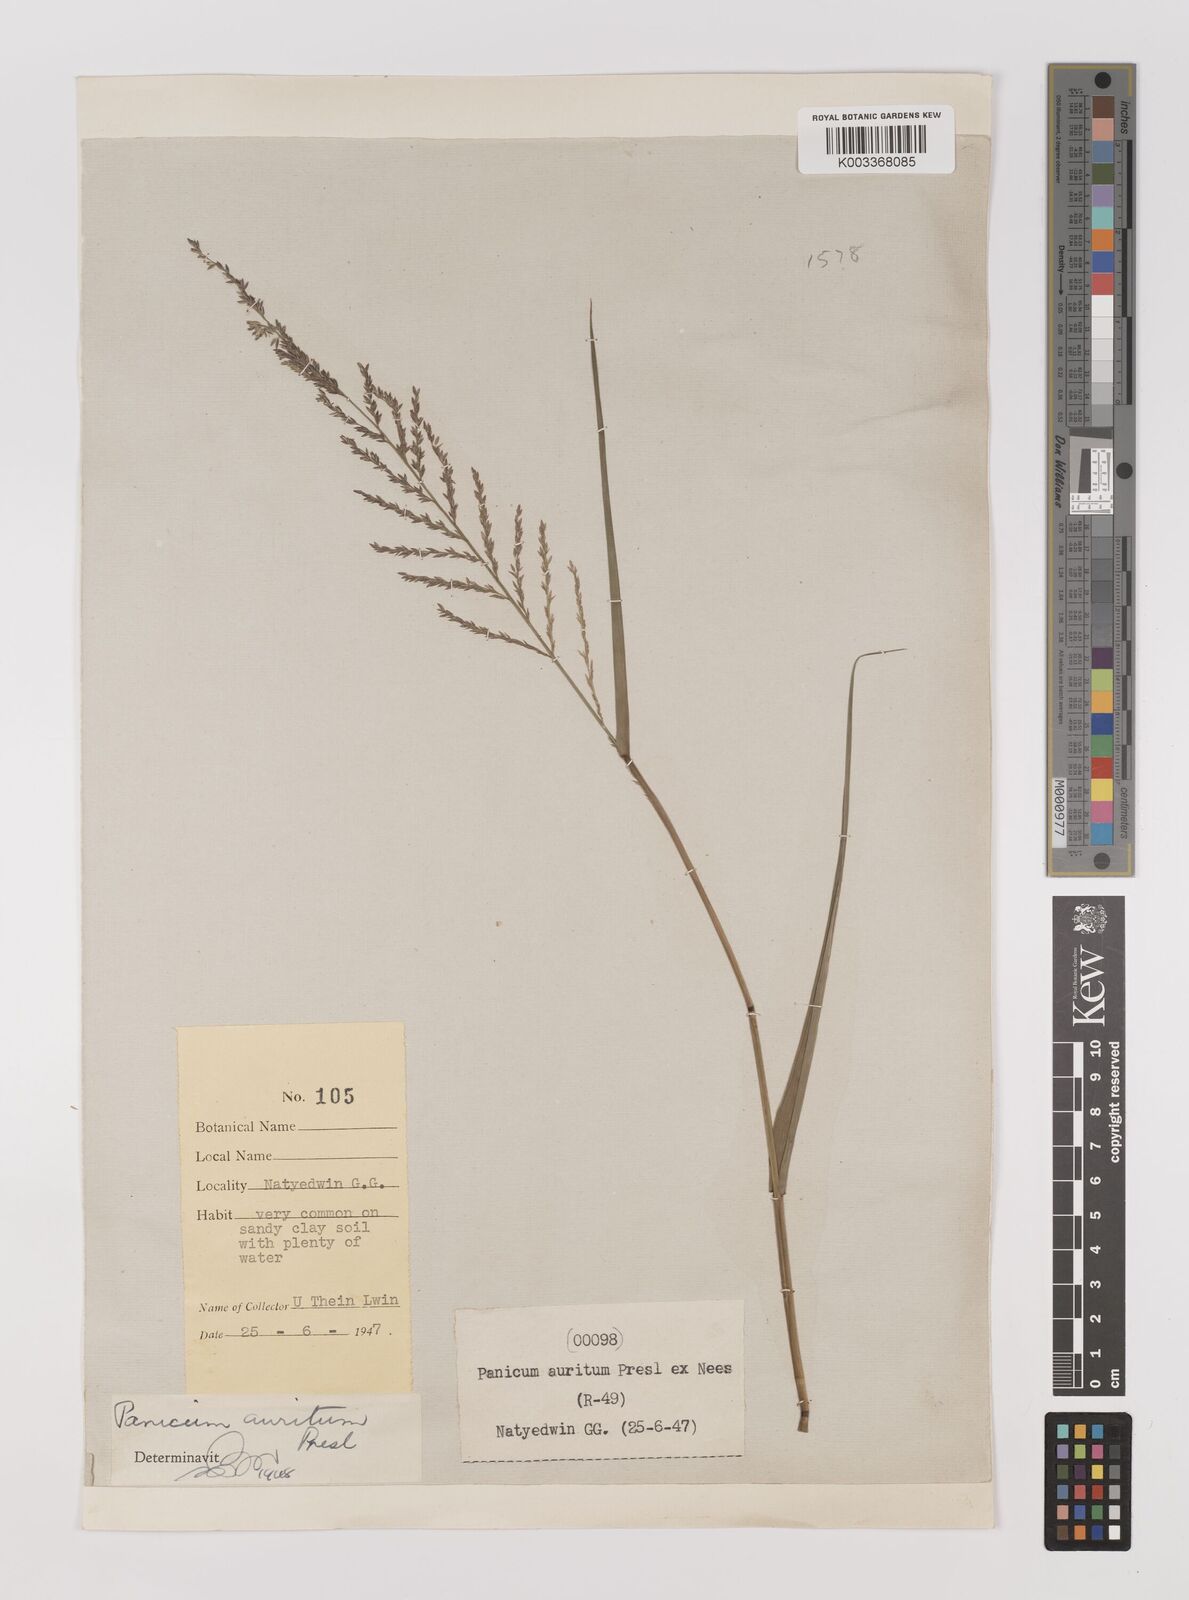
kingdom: Plantae
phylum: Tracheophyta
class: Liliopsida
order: Poales
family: Poaceae
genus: Hymenachne
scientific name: Hymenachne aurita
